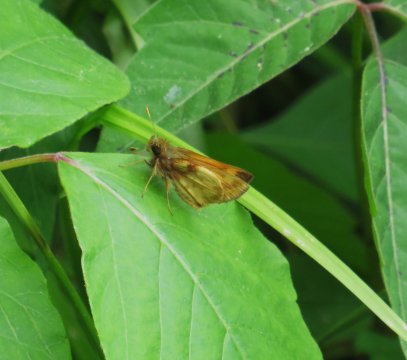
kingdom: Animalia
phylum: Arthropoda
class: Insecta
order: Lepidoptera
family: Hesperiidae
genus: Lon
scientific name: Lon zabulon
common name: Zabulon Skipper
